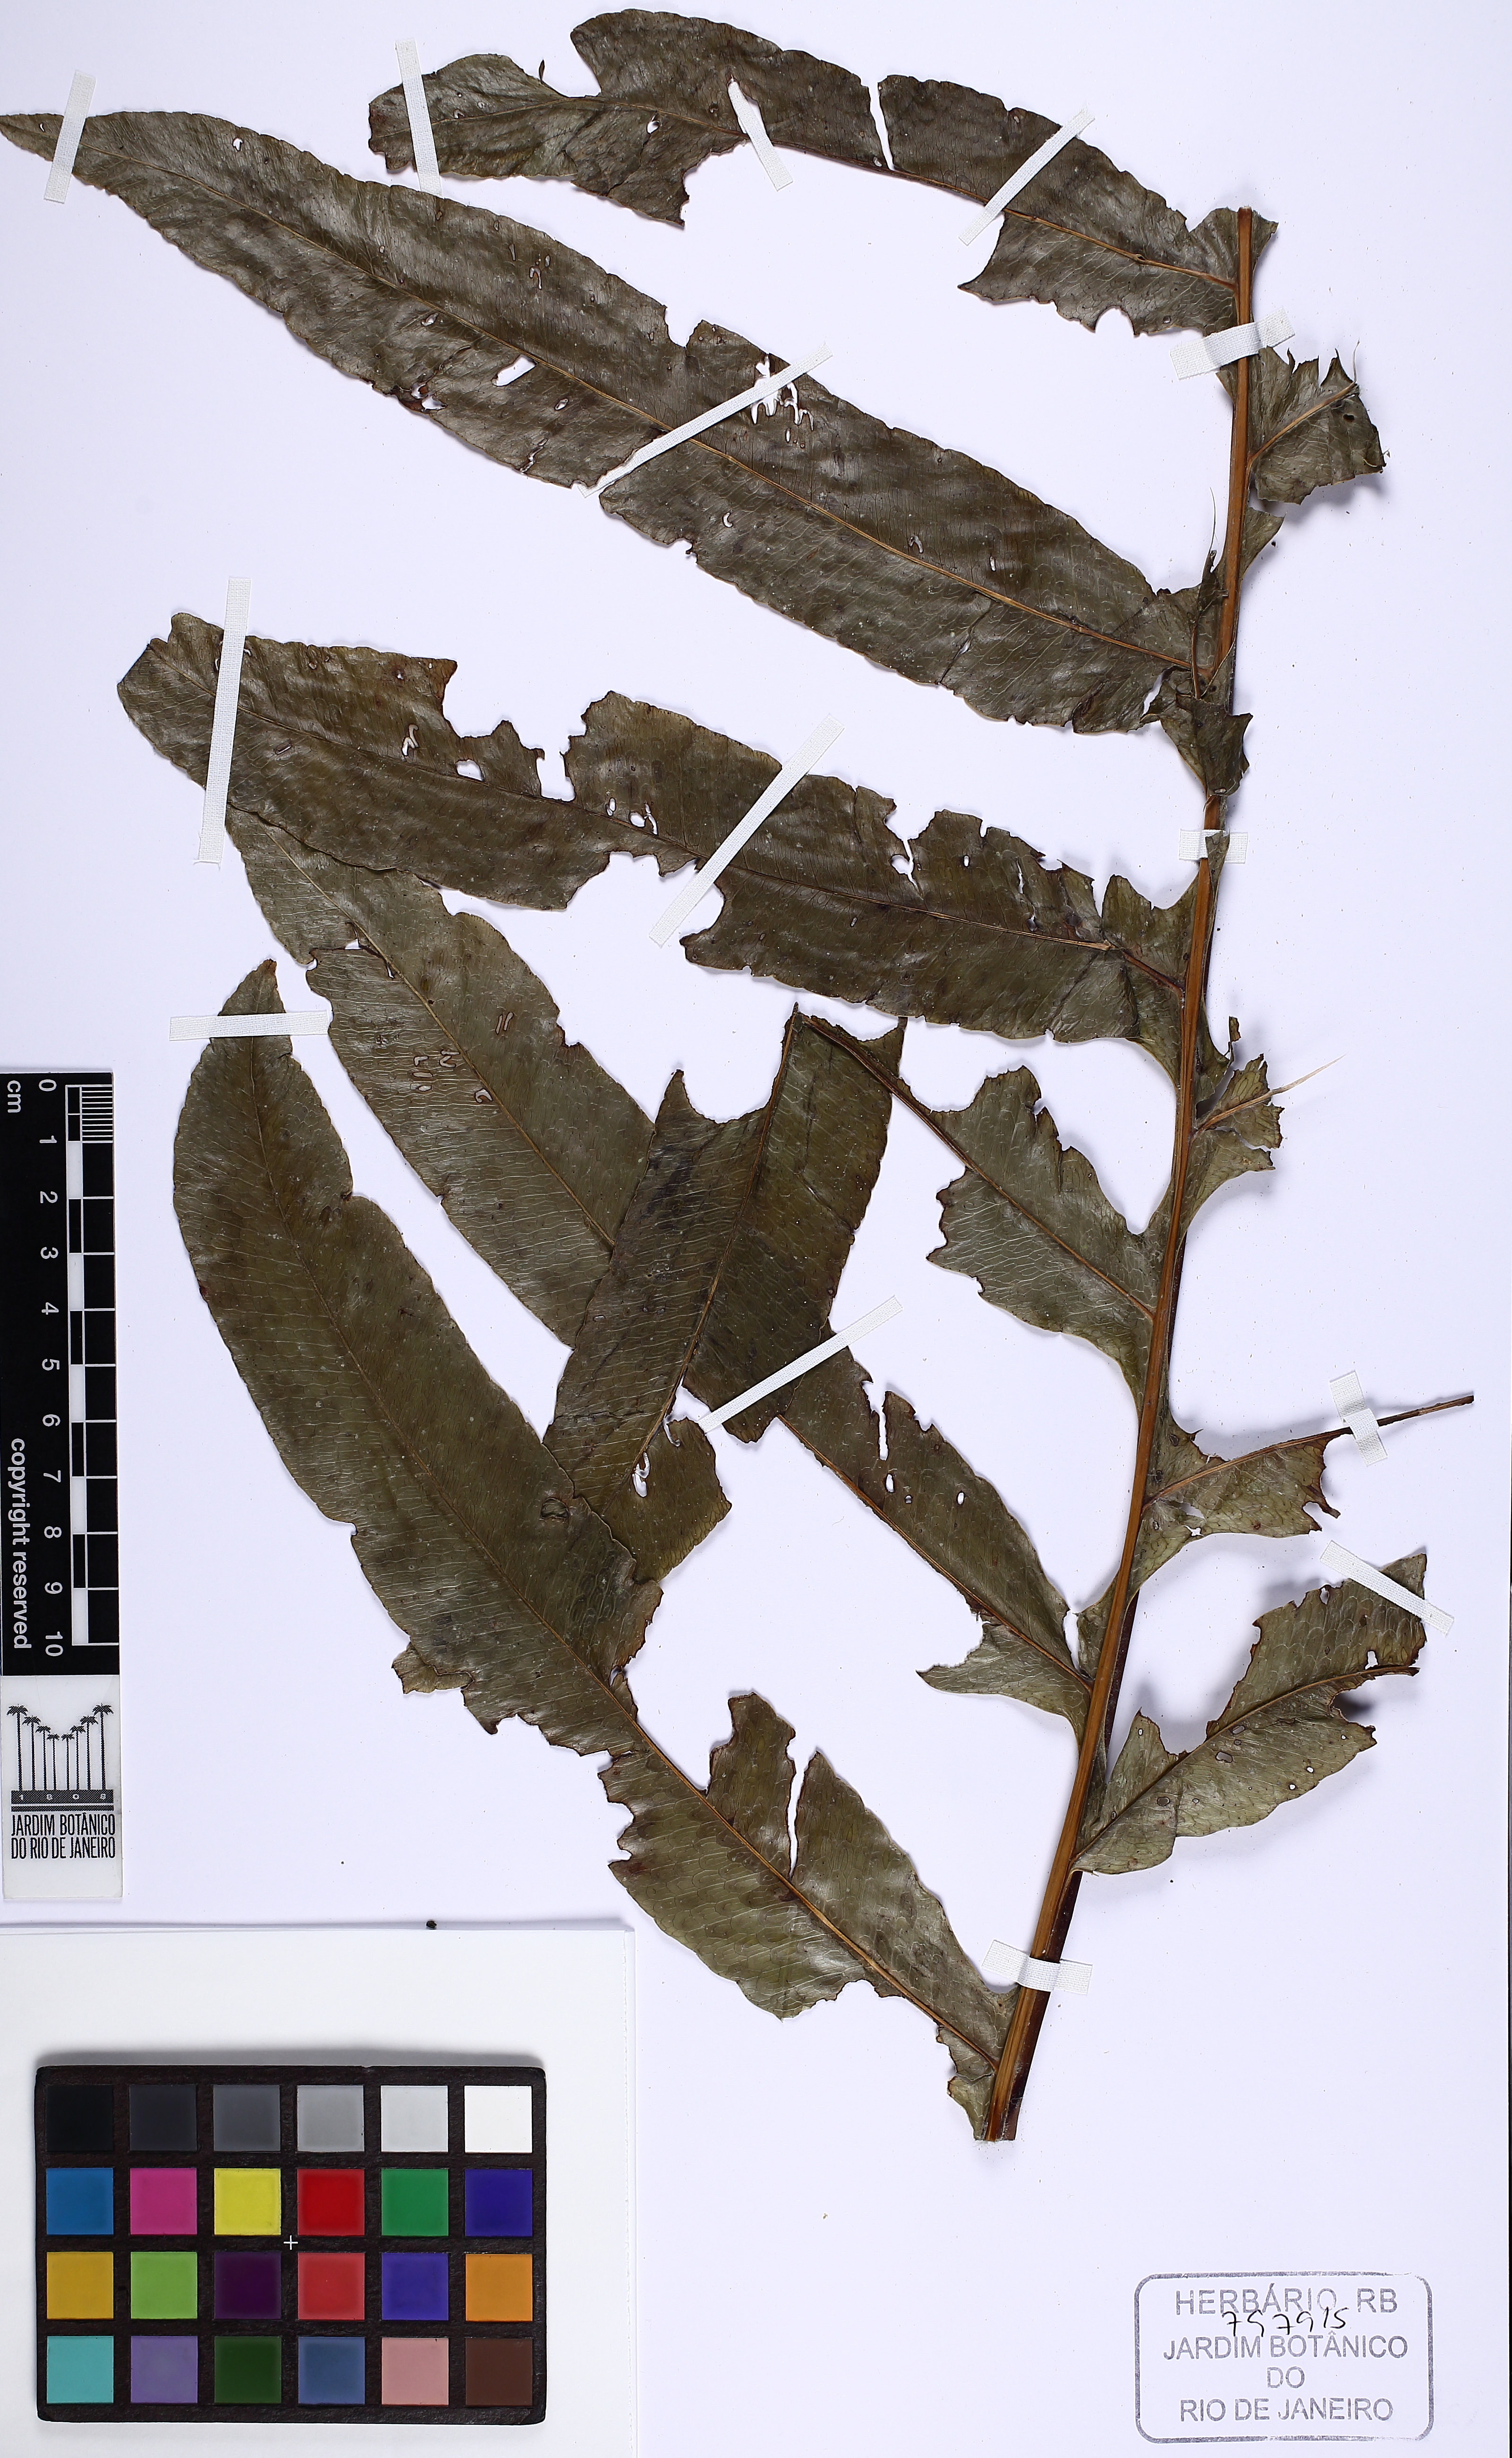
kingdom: Plantae
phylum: Tracheophyta
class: Polypodiopsida
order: Polypodiales
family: Polypodiaceae
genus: Phlebodium
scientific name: Phlebodium decumanum
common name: Golden polypod
